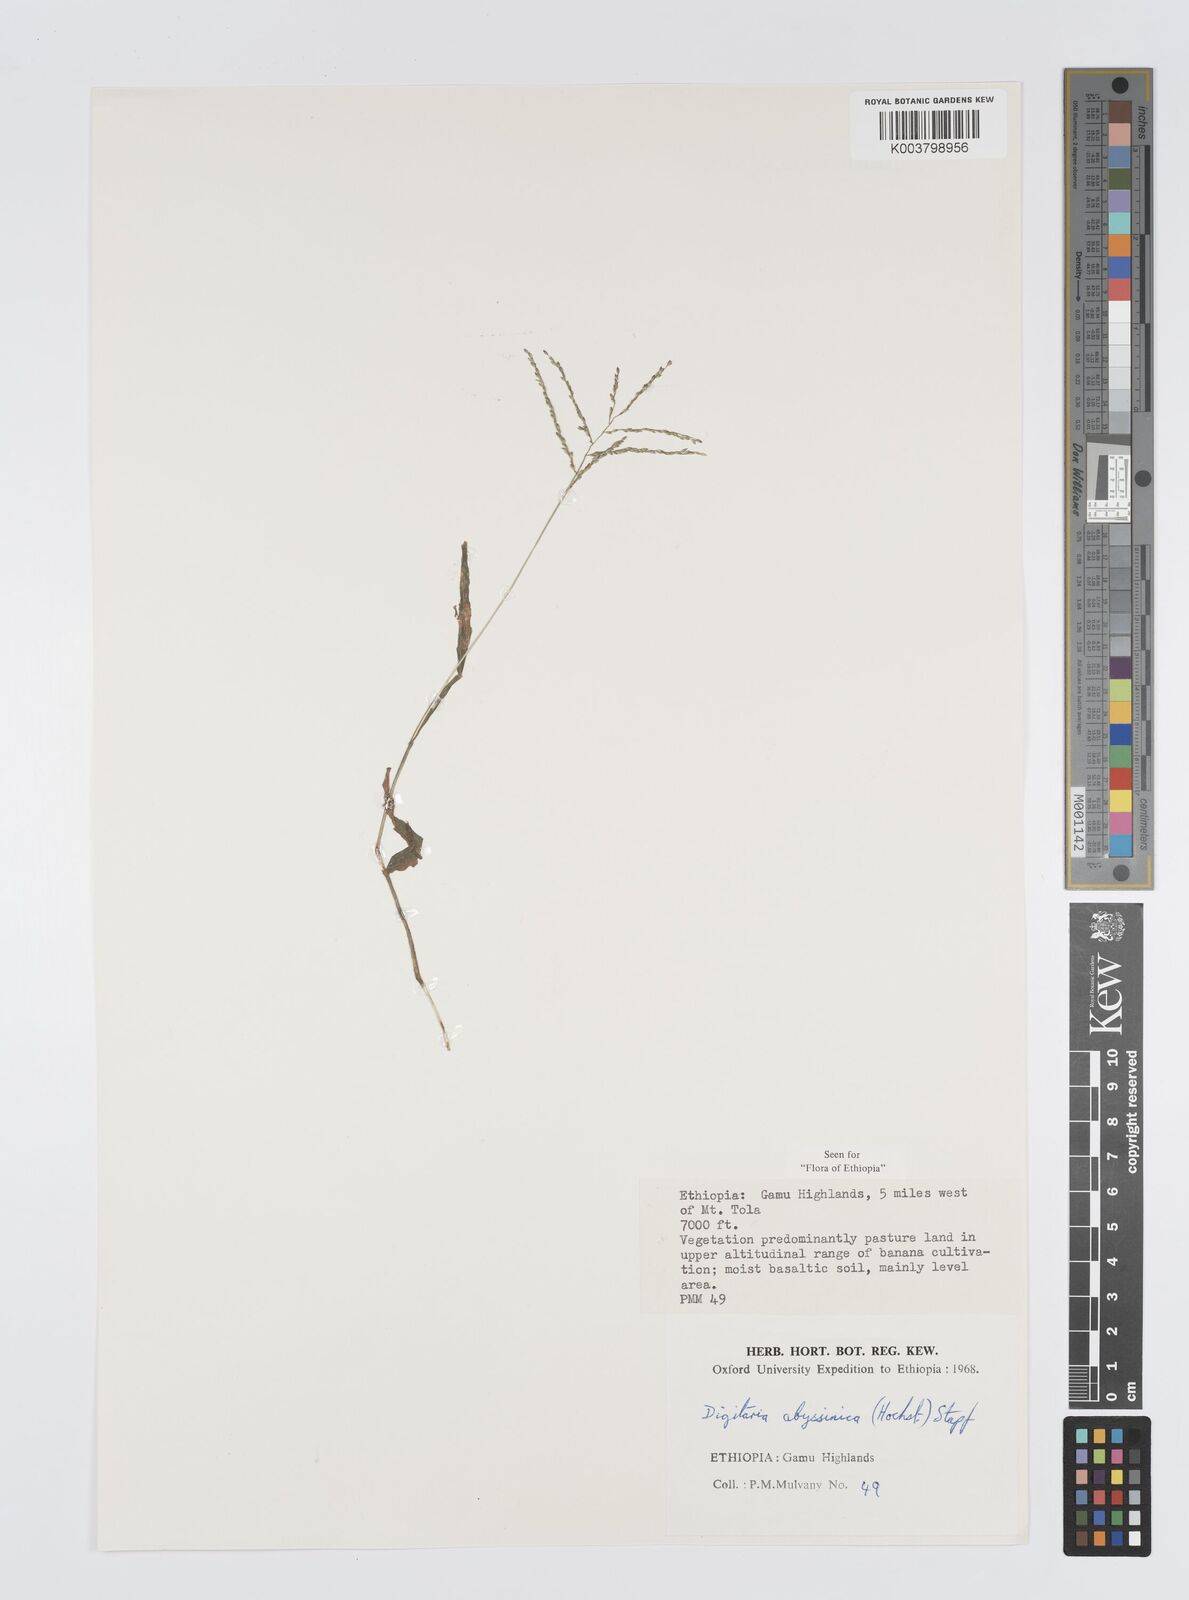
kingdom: Plantae
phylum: Tracheophyta
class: Liliopsida
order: Poales
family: Poaceae
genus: Digitaria
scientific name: Digitaria abyssinica
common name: African couchgrass
